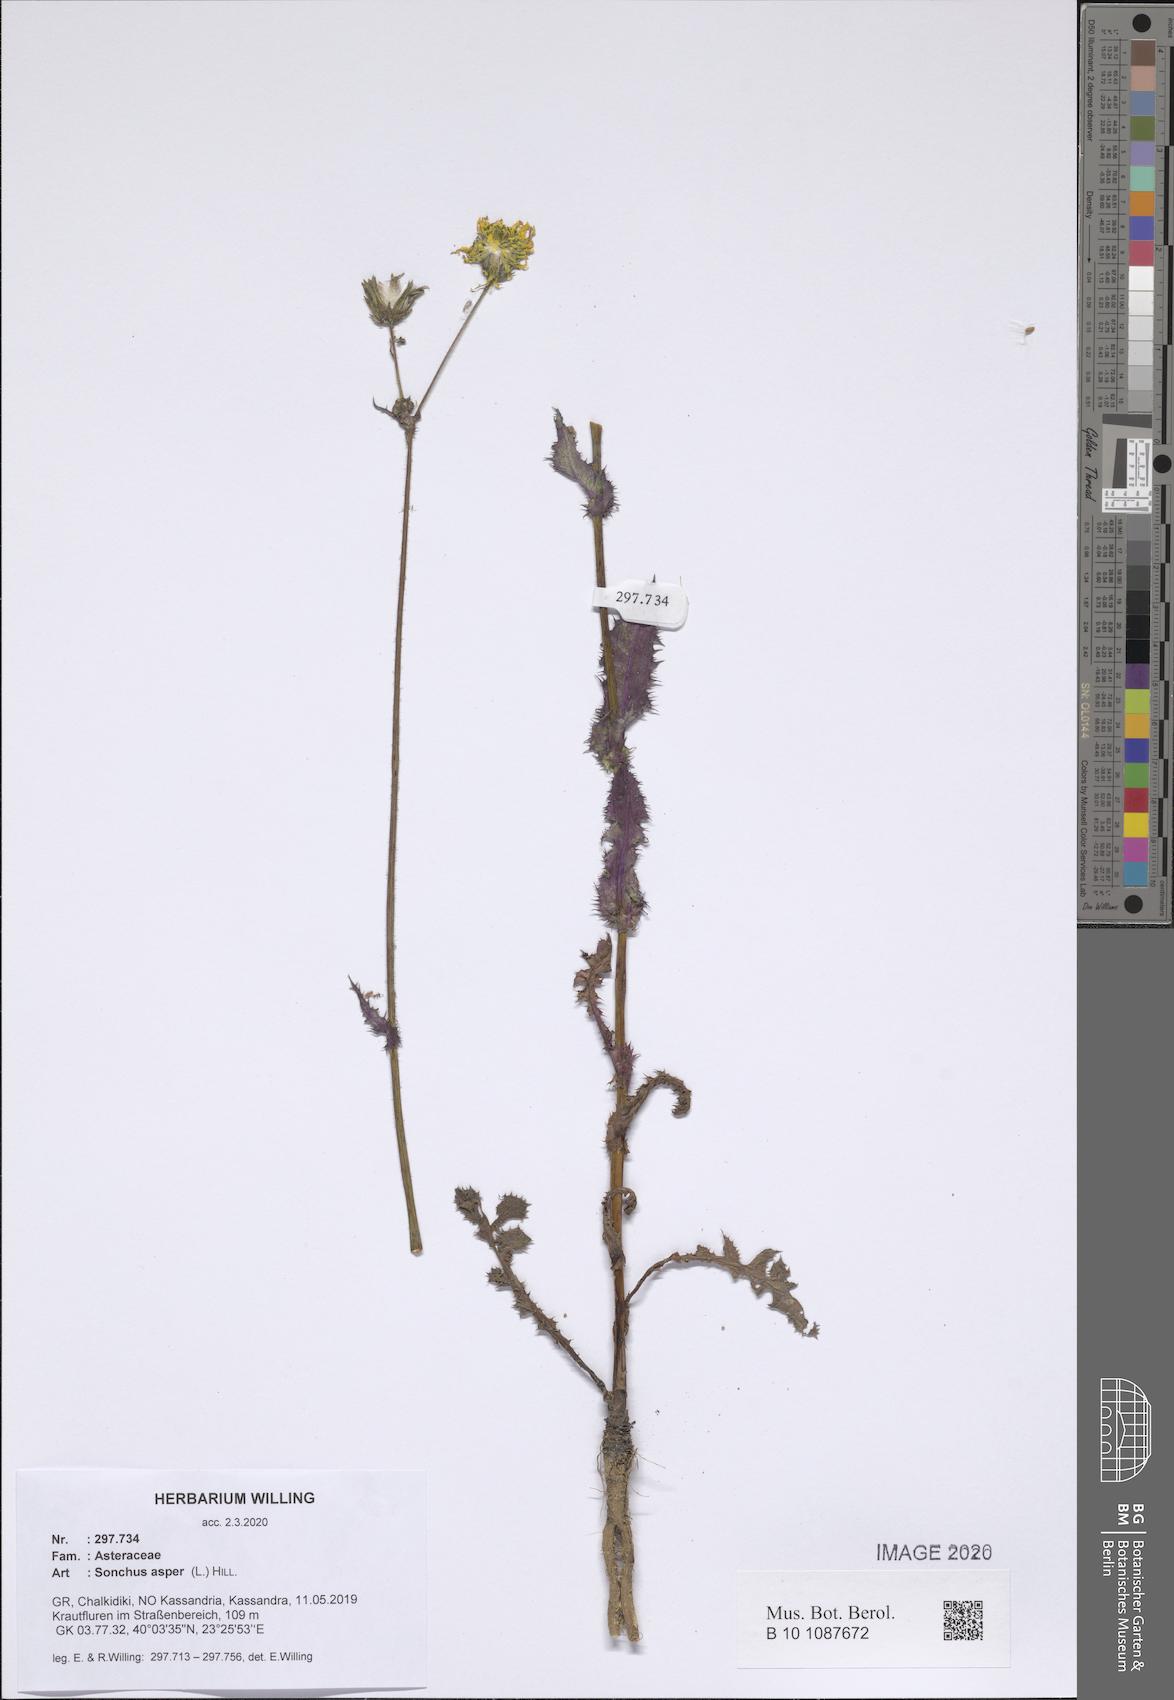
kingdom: Plantae
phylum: Tracheophyta
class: Magnoliopsida
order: Asterales
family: Asteraceae
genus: Sonchus
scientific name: Sonchus asper
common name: Prickly sow-thistle
